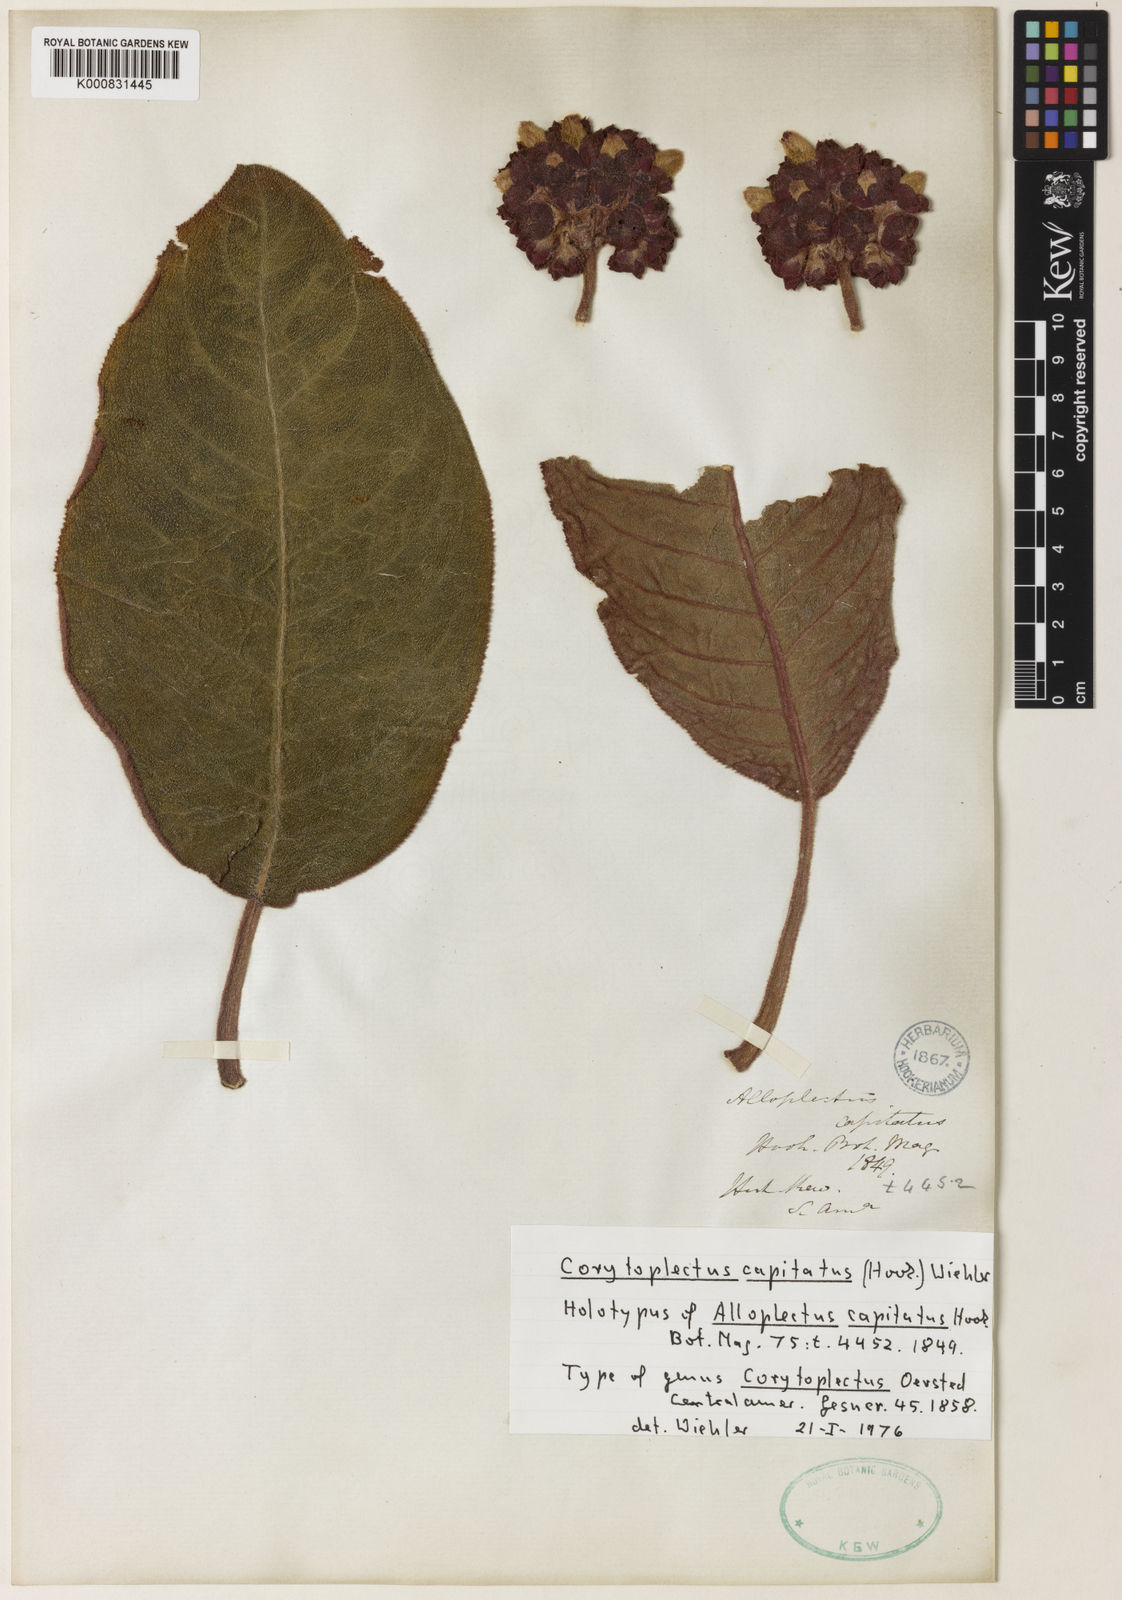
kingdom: Plantae
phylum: Tracheophyta
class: Magnoliopsida
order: Lamiales
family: Gesneriaceae
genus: Corytoplectus
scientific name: Corytoplectus capitatus
